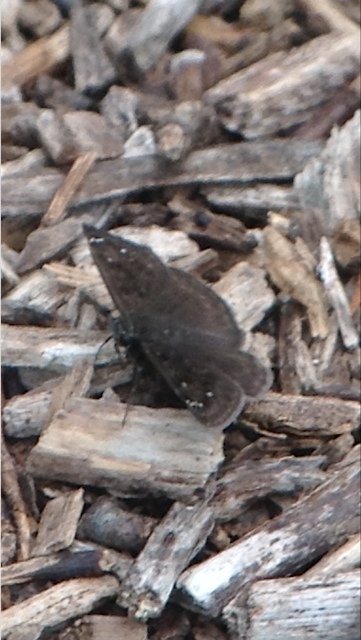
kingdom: Animalia
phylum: Arthropoda
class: Insecta
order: Lepidoptera
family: Hesperiidae
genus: Autochton
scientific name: Autochton
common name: Northern Cloudywing
